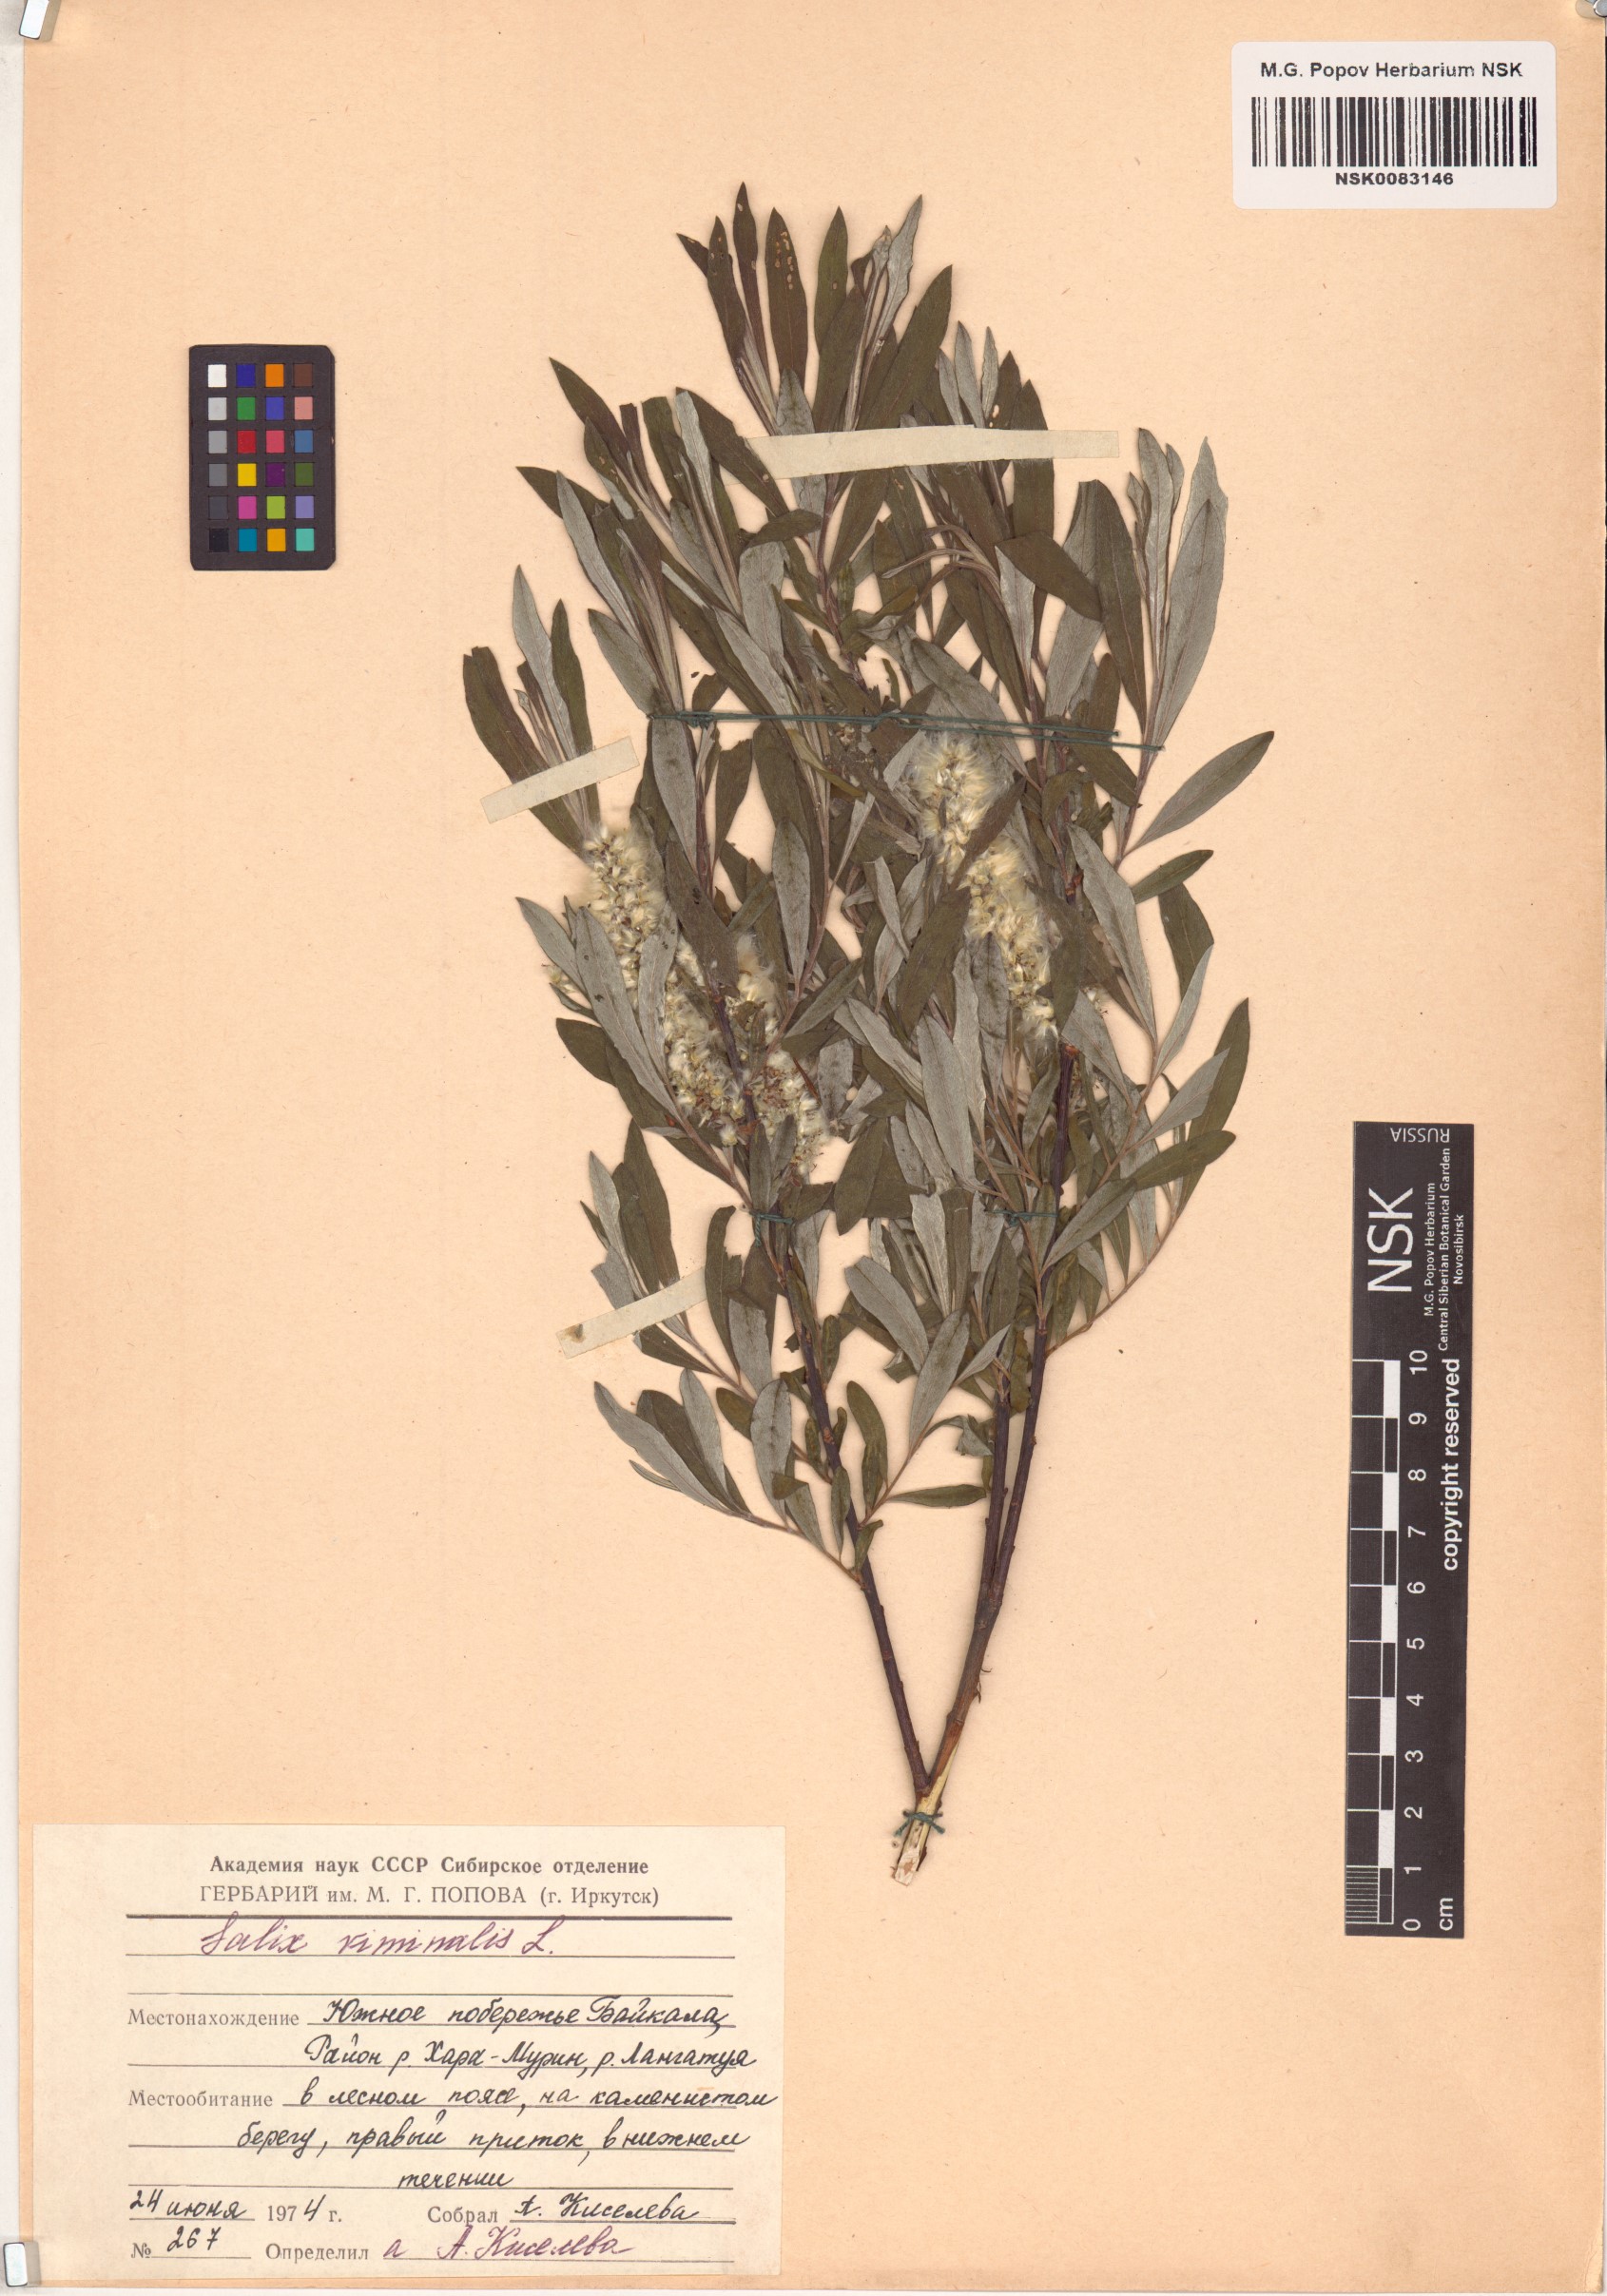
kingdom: Plantae
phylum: Tracheophyta
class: Magnoliopsida
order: Malpighiales
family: Salicaceae
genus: Salix
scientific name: Salix viminalis
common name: Osier
